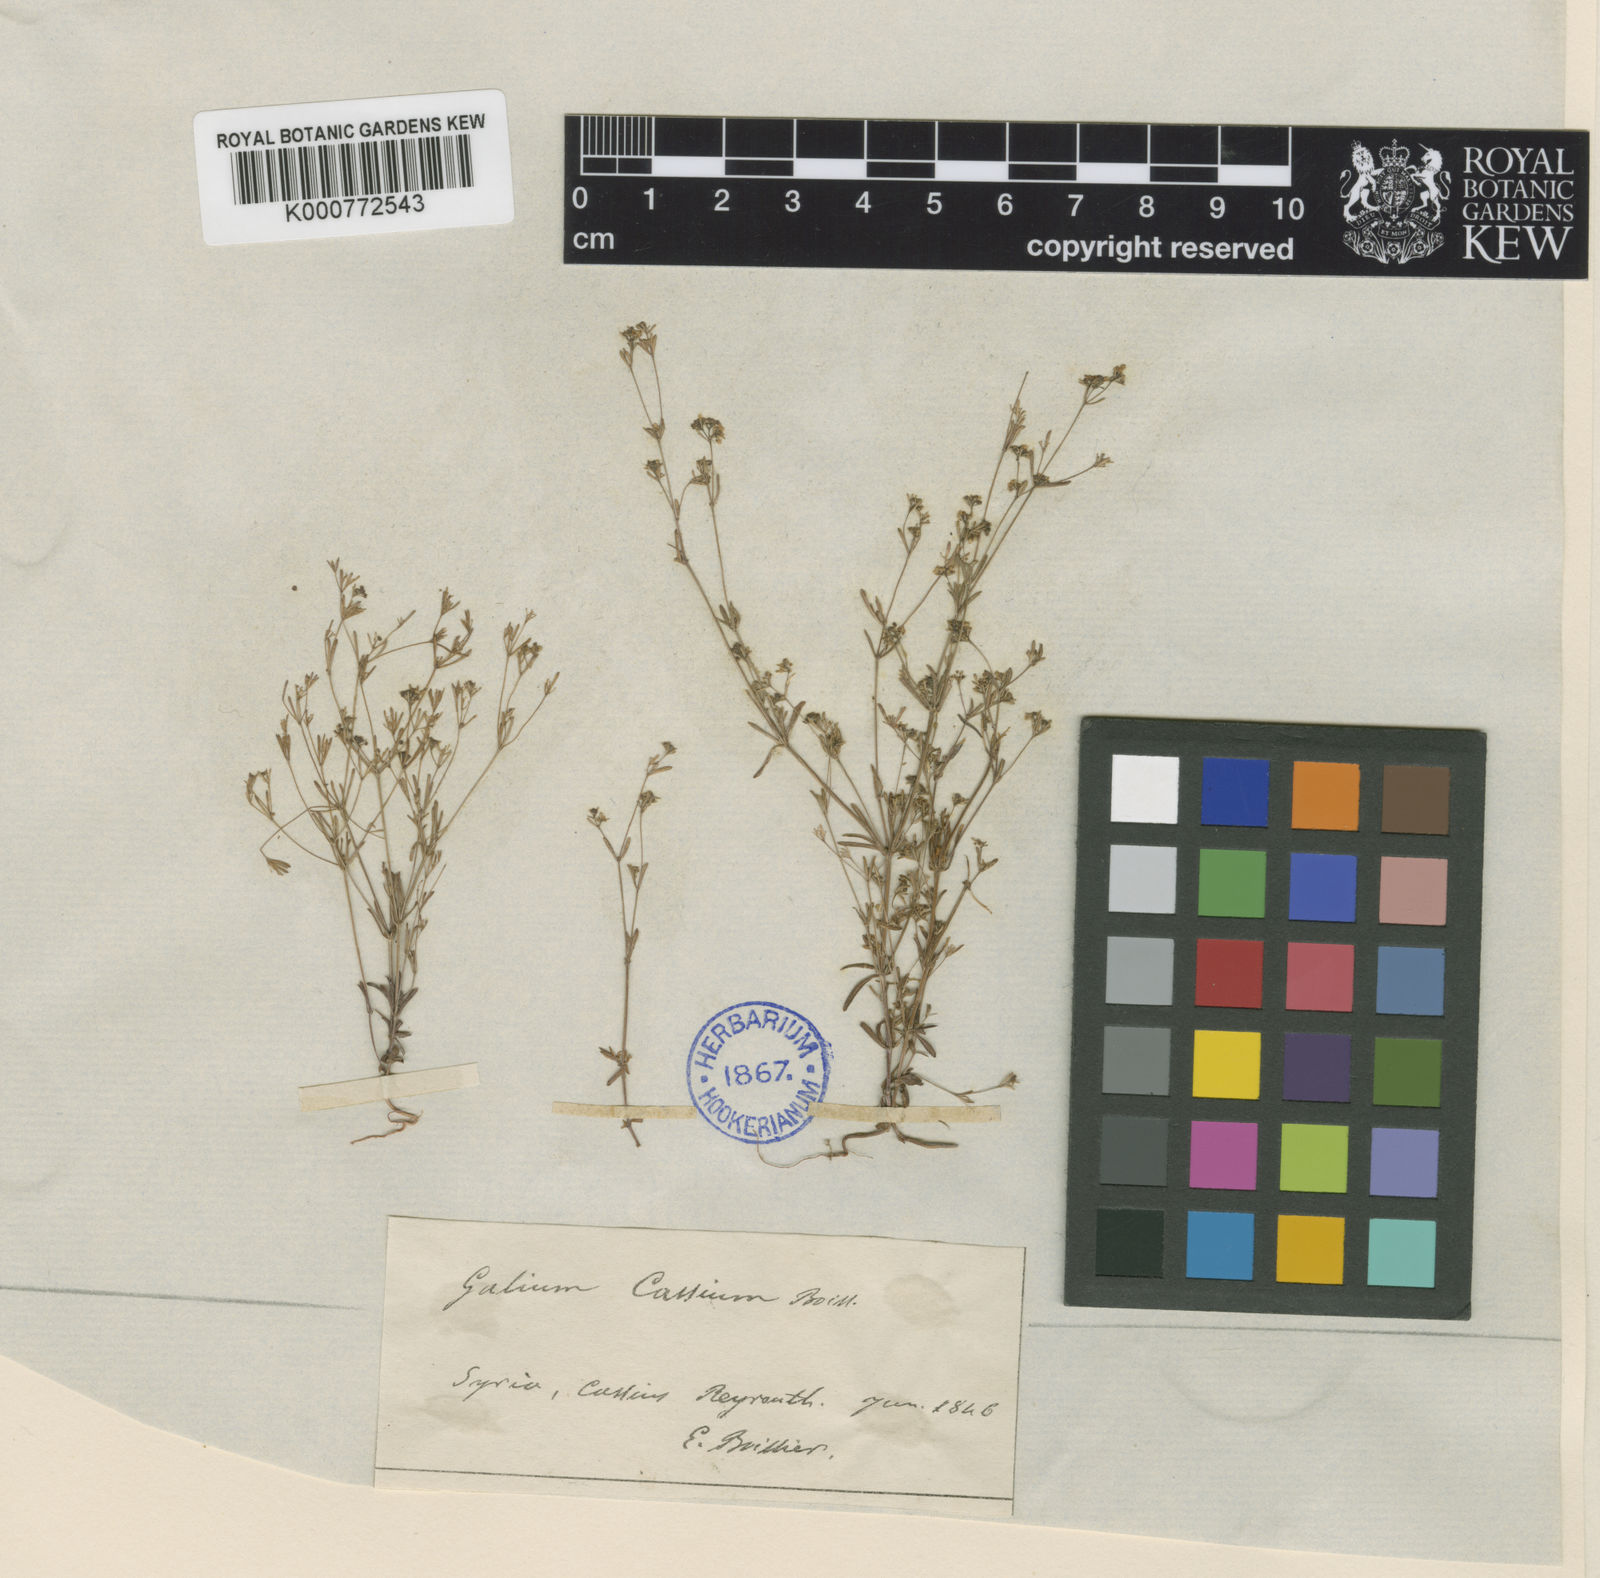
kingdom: Plantae
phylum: Tracheophyta
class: Magnoliopsida
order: Gentianales
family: Rubiaceae
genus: Galium
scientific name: Galium cassium
